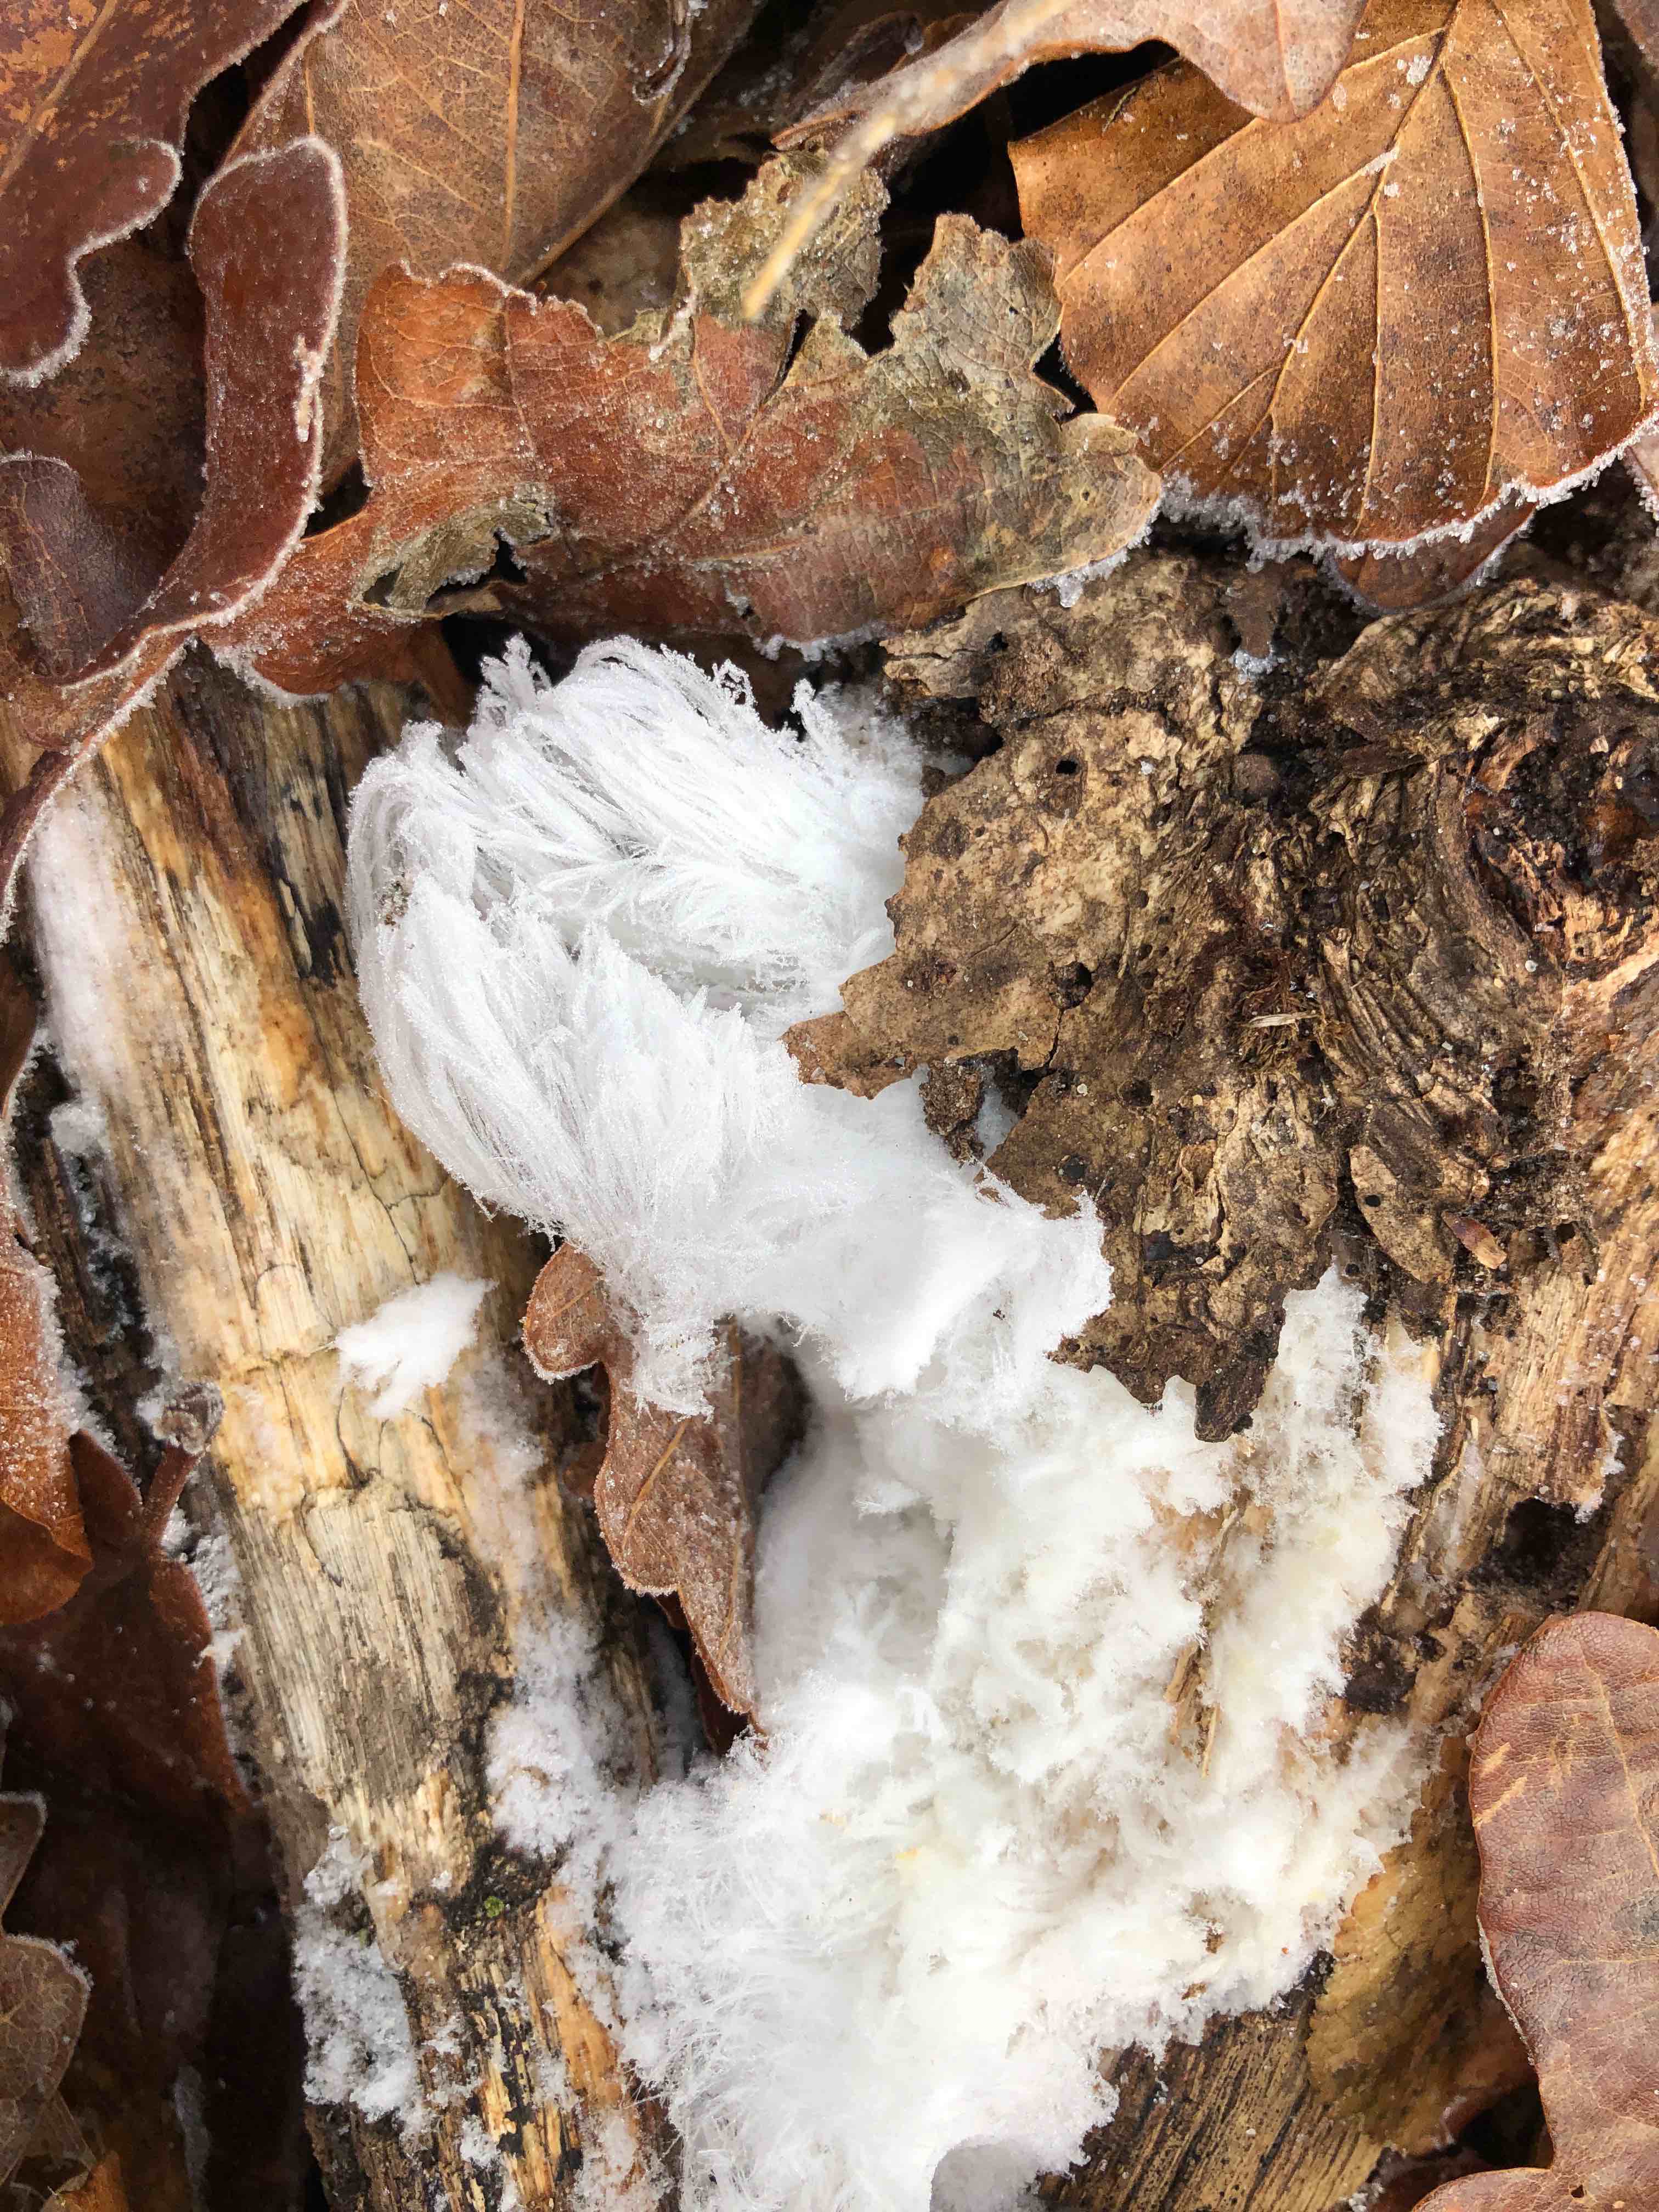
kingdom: Fungi
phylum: Basidiomycota
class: Tremellomycetes
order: Tremellales
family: Exidiaceae
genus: Exidiopsis
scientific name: Exidiopsis effusa
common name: smuk bævrehinde
